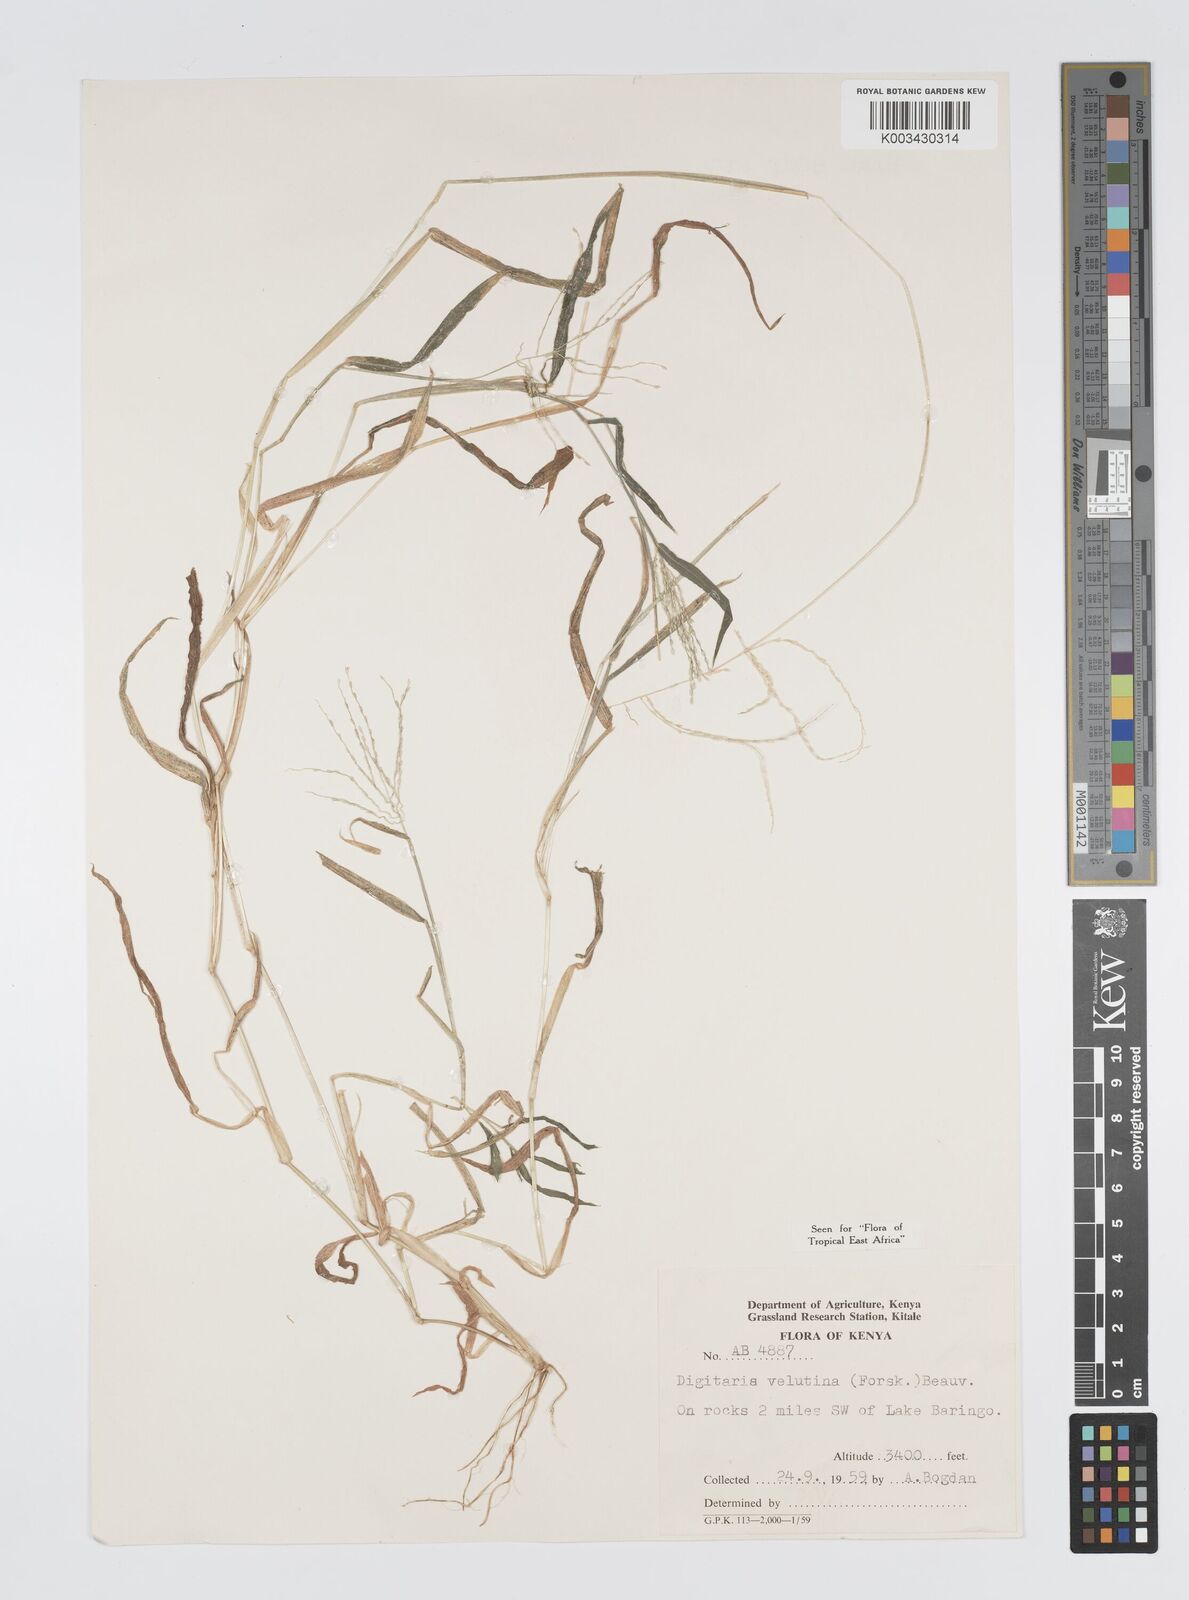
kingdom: Plantae
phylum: Tracheophyta
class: Liliopsida
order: Poales
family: Poaceae
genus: Digitaria
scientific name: Digitaria velutina
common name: Long-plume finger grass
